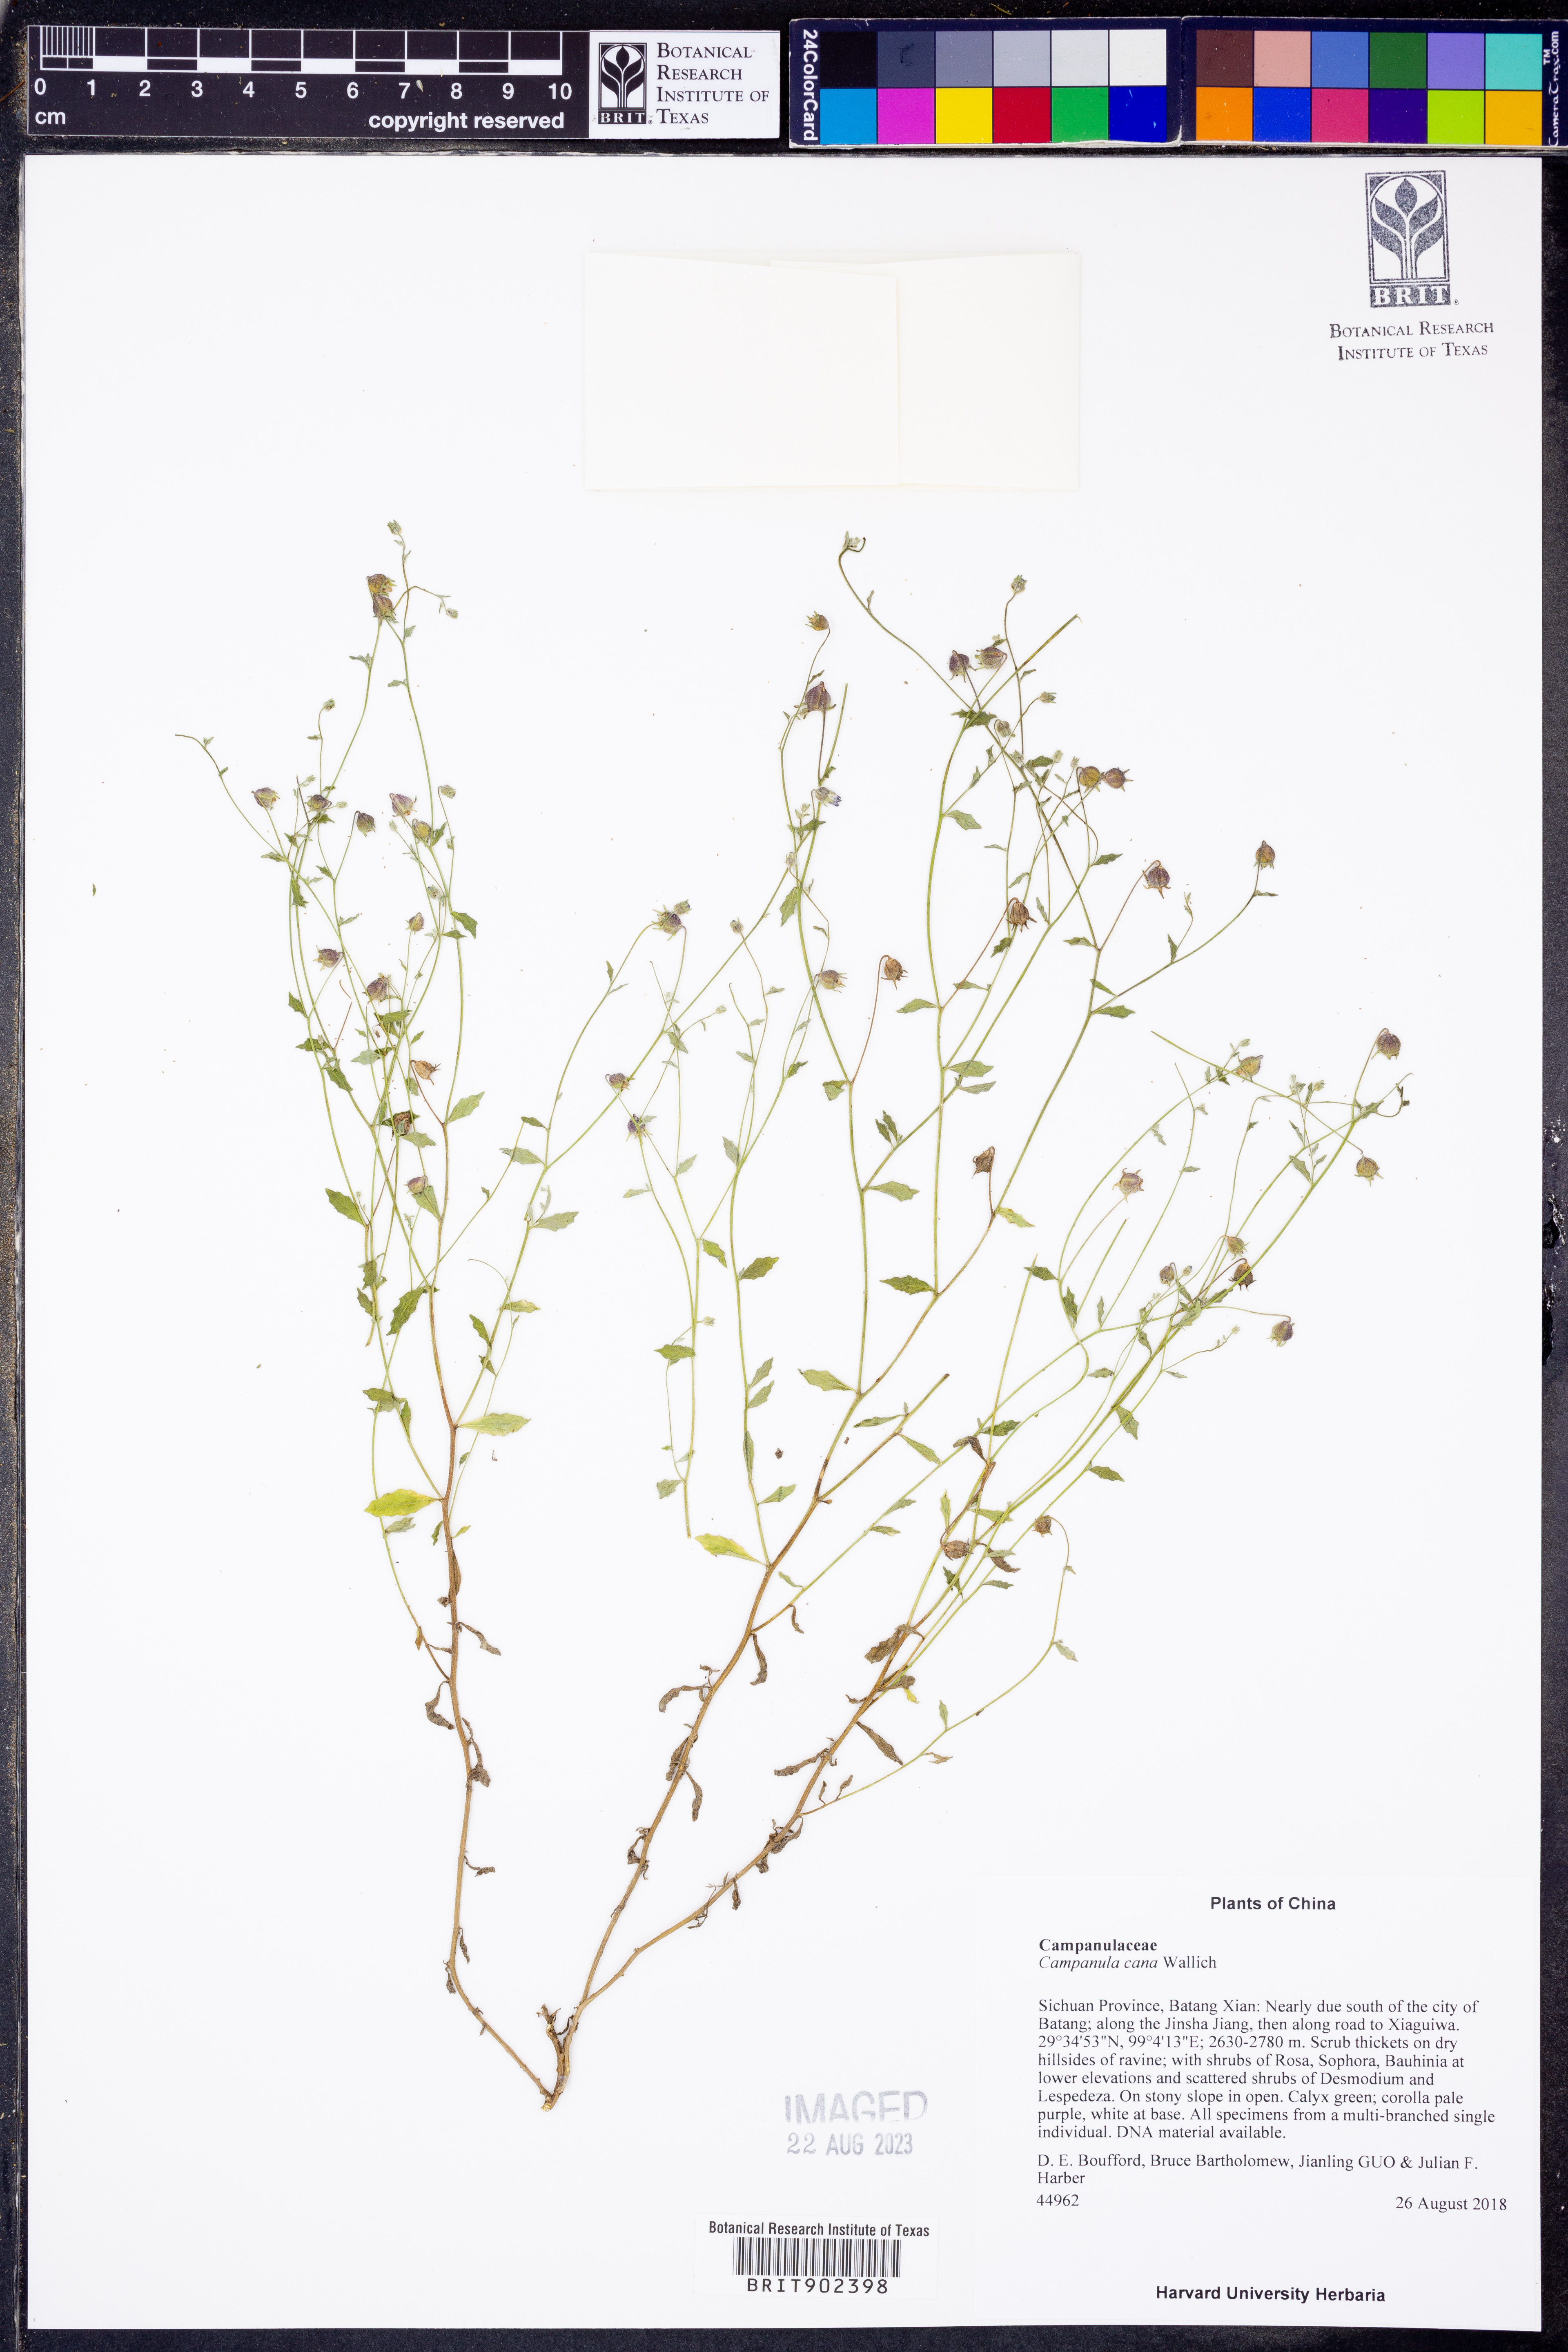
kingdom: Plantae
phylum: Tracheophyta
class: Magnoliopsida
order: Asterales
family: Campanulaceae
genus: Campanula
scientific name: Campanula
